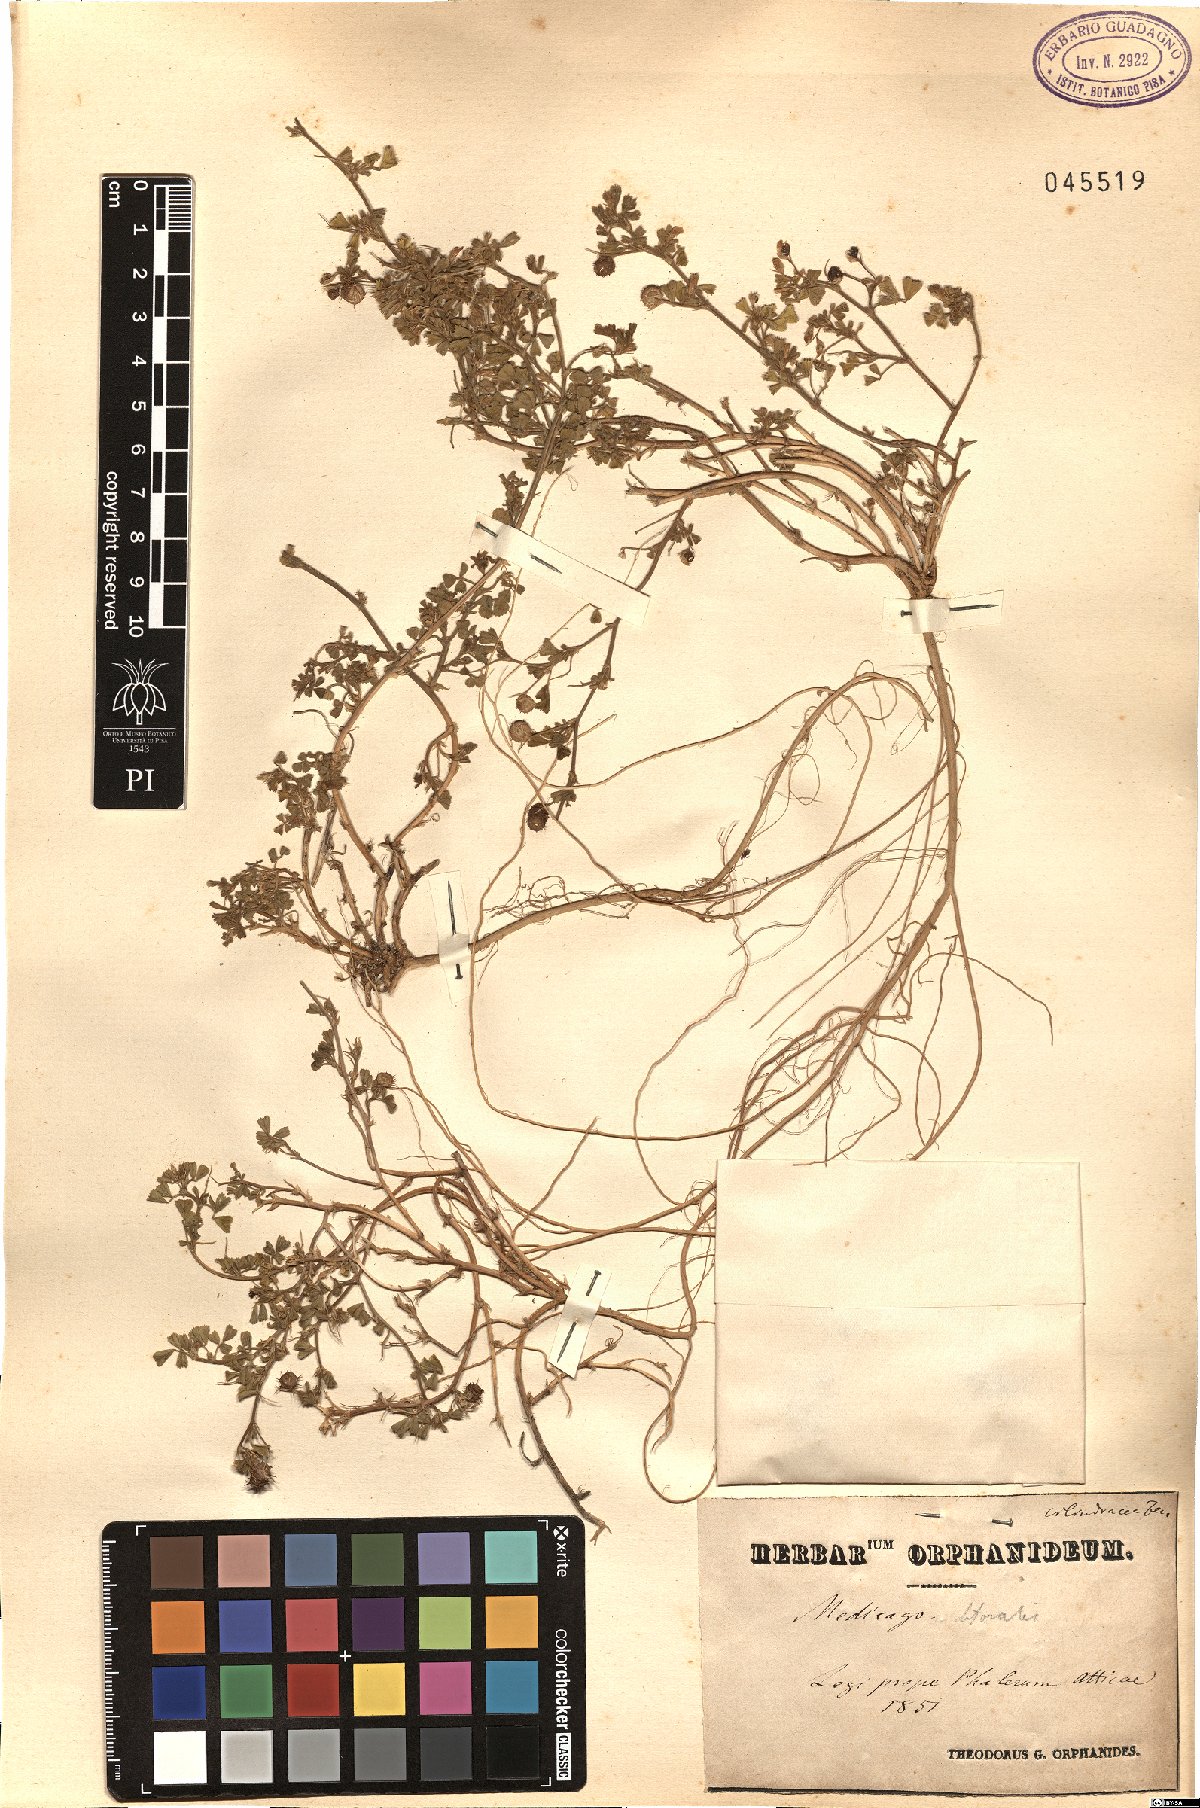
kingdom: Plantae
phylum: Tracheophyta
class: Magnoliopsida
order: Fabales
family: Fabaceae
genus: Medicago
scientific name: Medicago littoralis
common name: Shore medick
